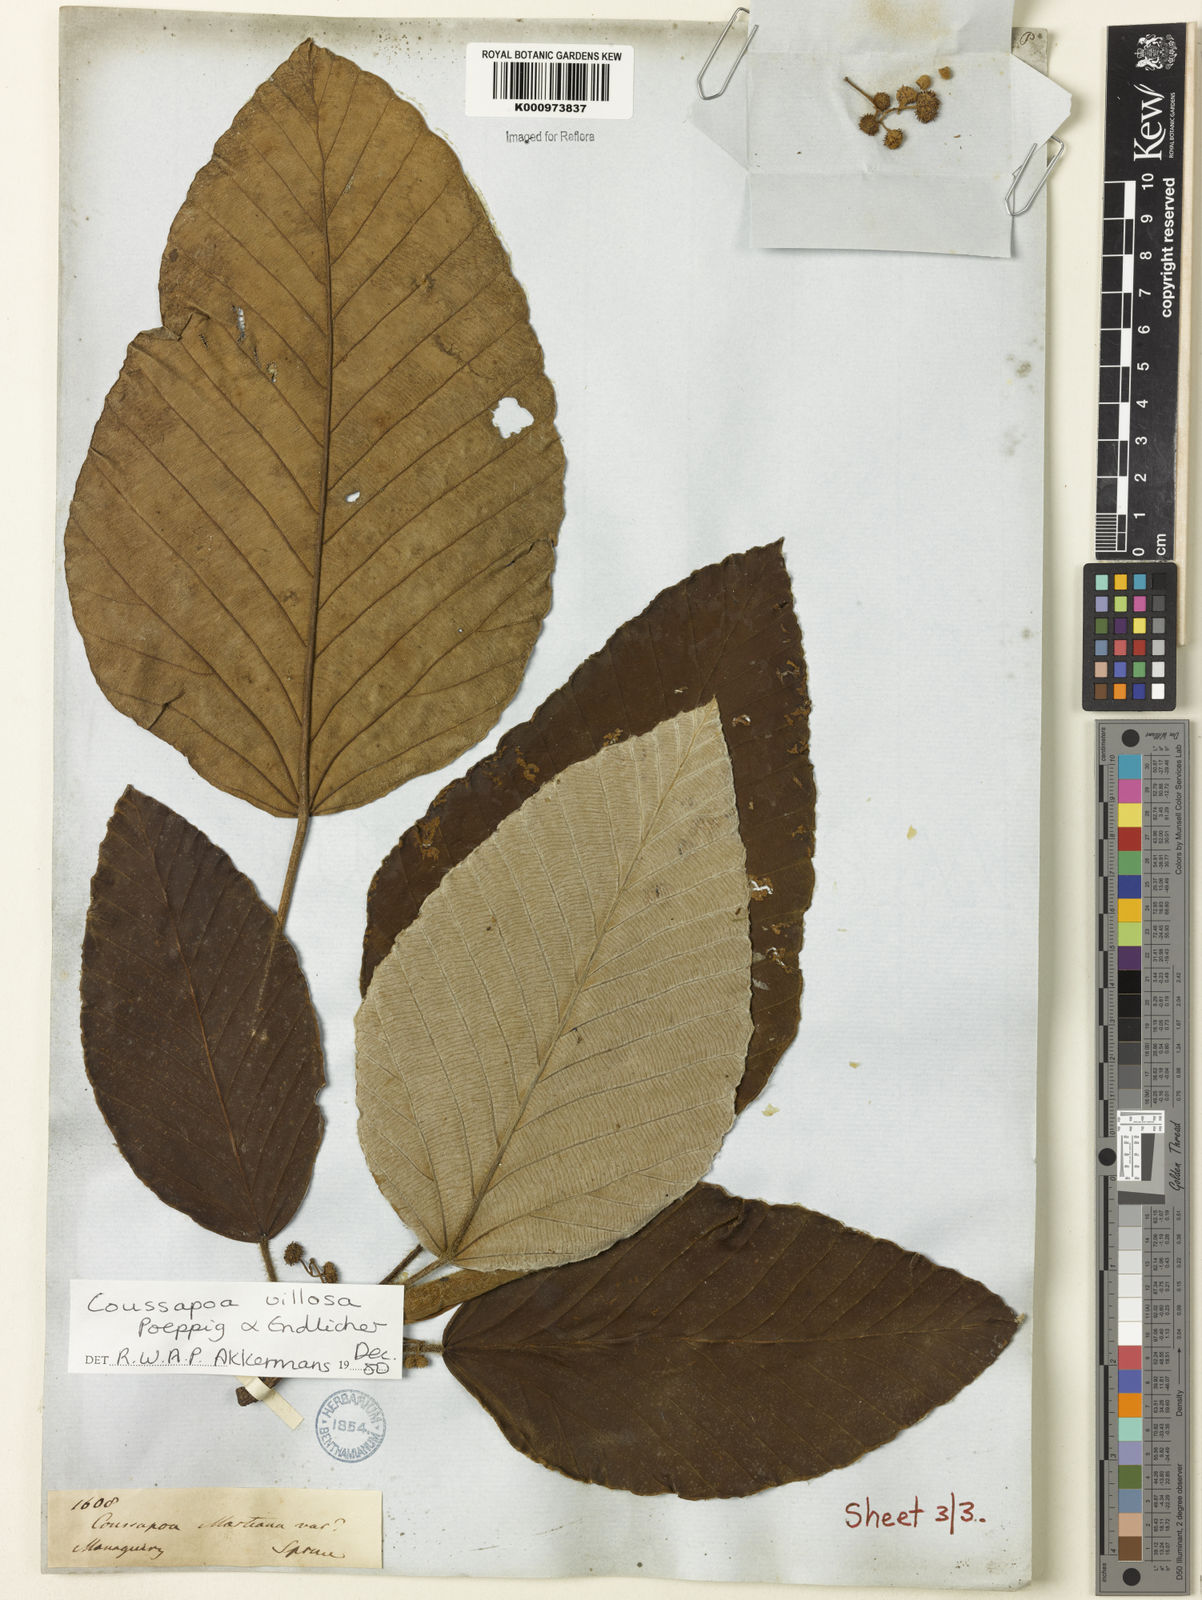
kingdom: Plantae
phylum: Tracheophyta
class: Magnoliopsida
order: Rosales
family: Urticaceae
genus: Coussapoa
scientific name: Coussapoa villosa
